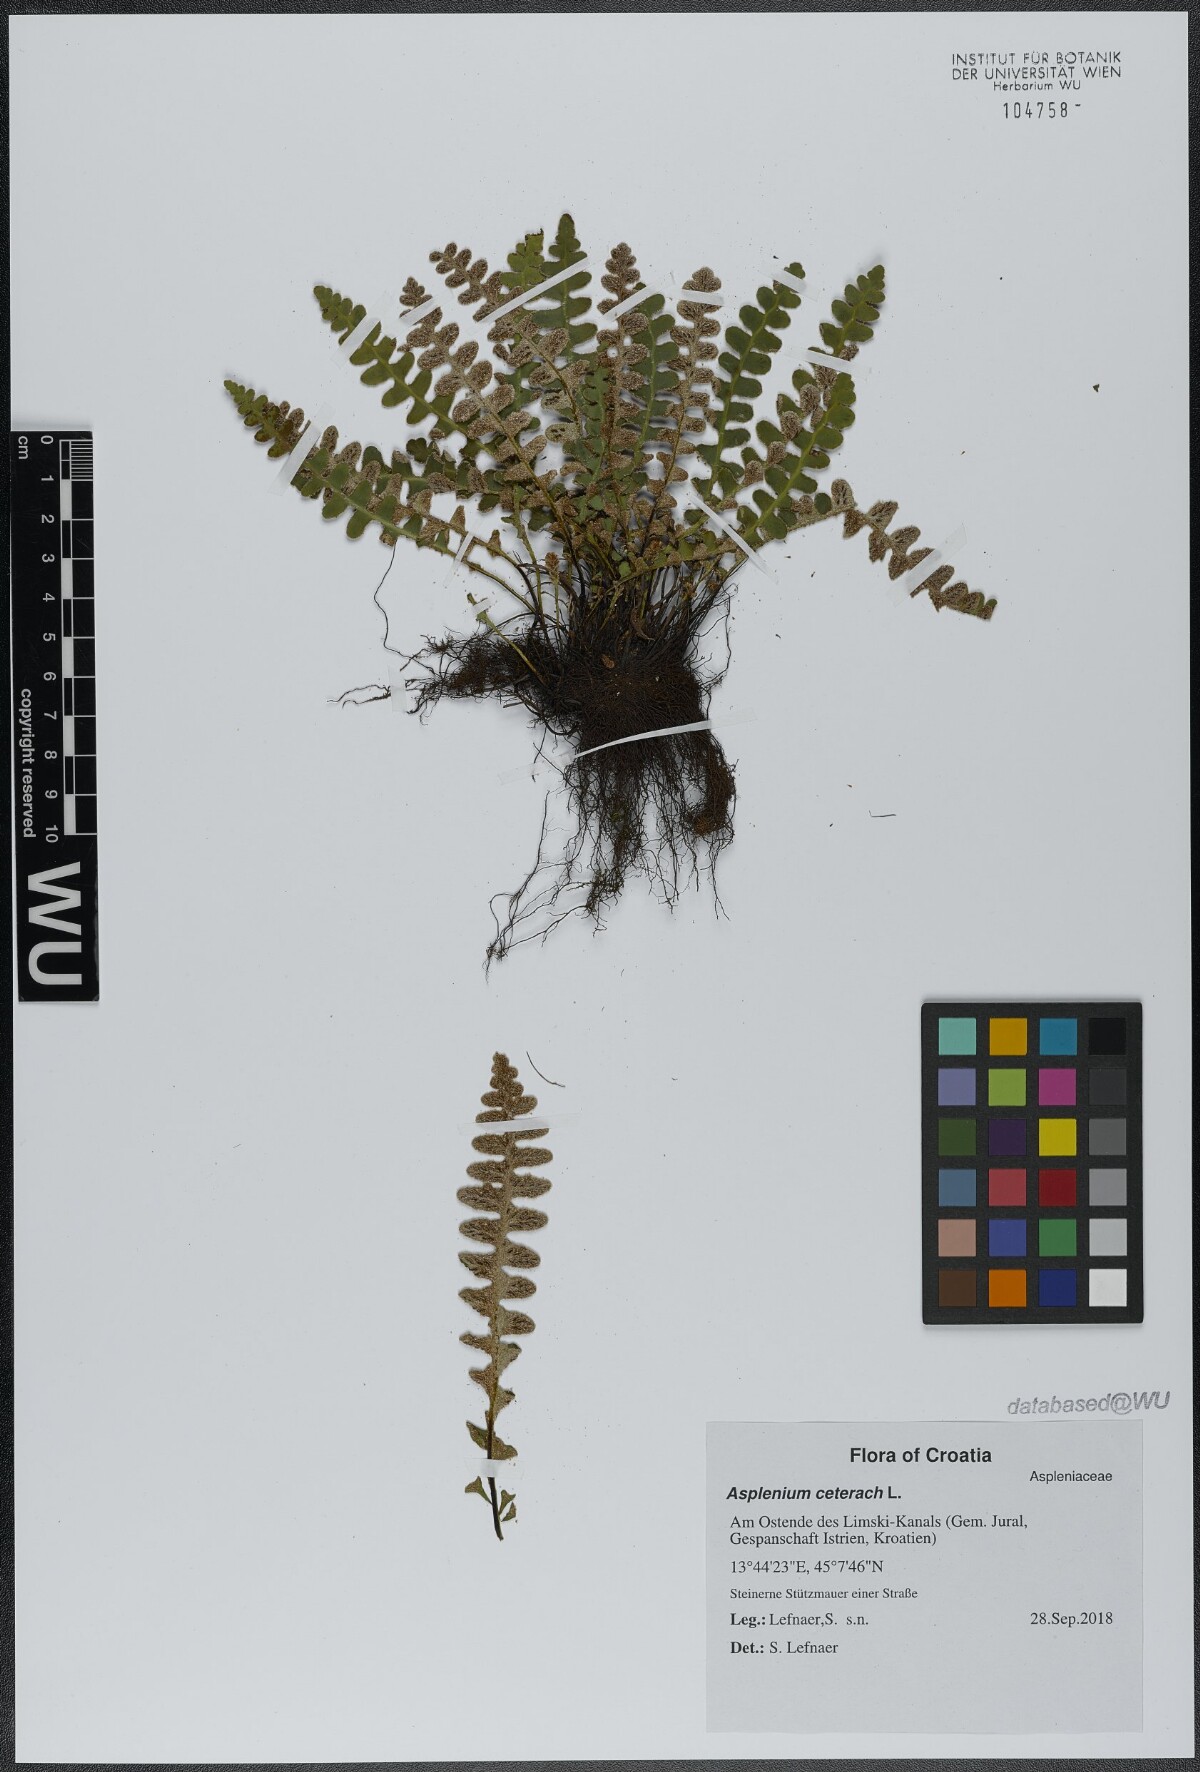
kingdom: Plantae
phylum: Tracheophyta
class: Polypodiopsida
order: Polypodiales
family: Aspleniaceae
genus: Asplenium
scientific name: Asplenium ceterach
